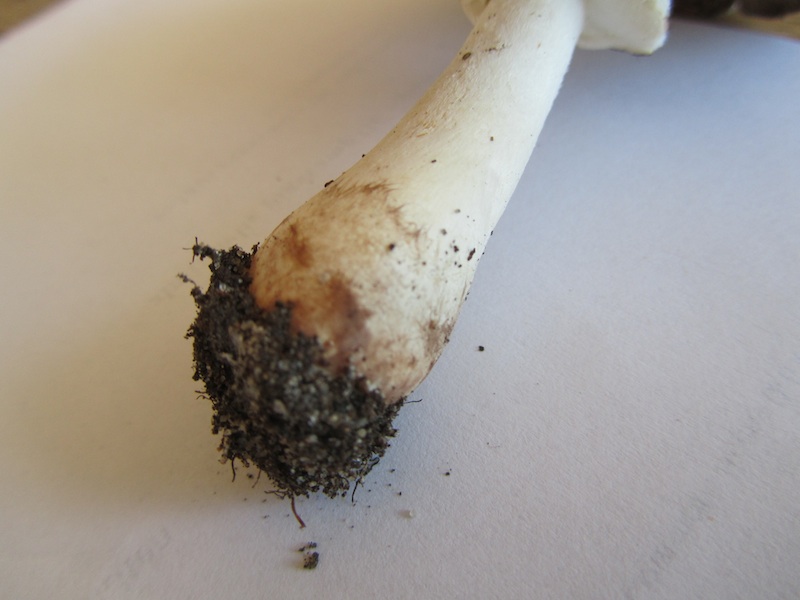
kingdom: Fungi
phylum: Basidiomycota
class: Agaricomycetes
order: Agaricales
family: Agaricaceae
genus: Agaricus
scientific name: Agaricus impudicus
